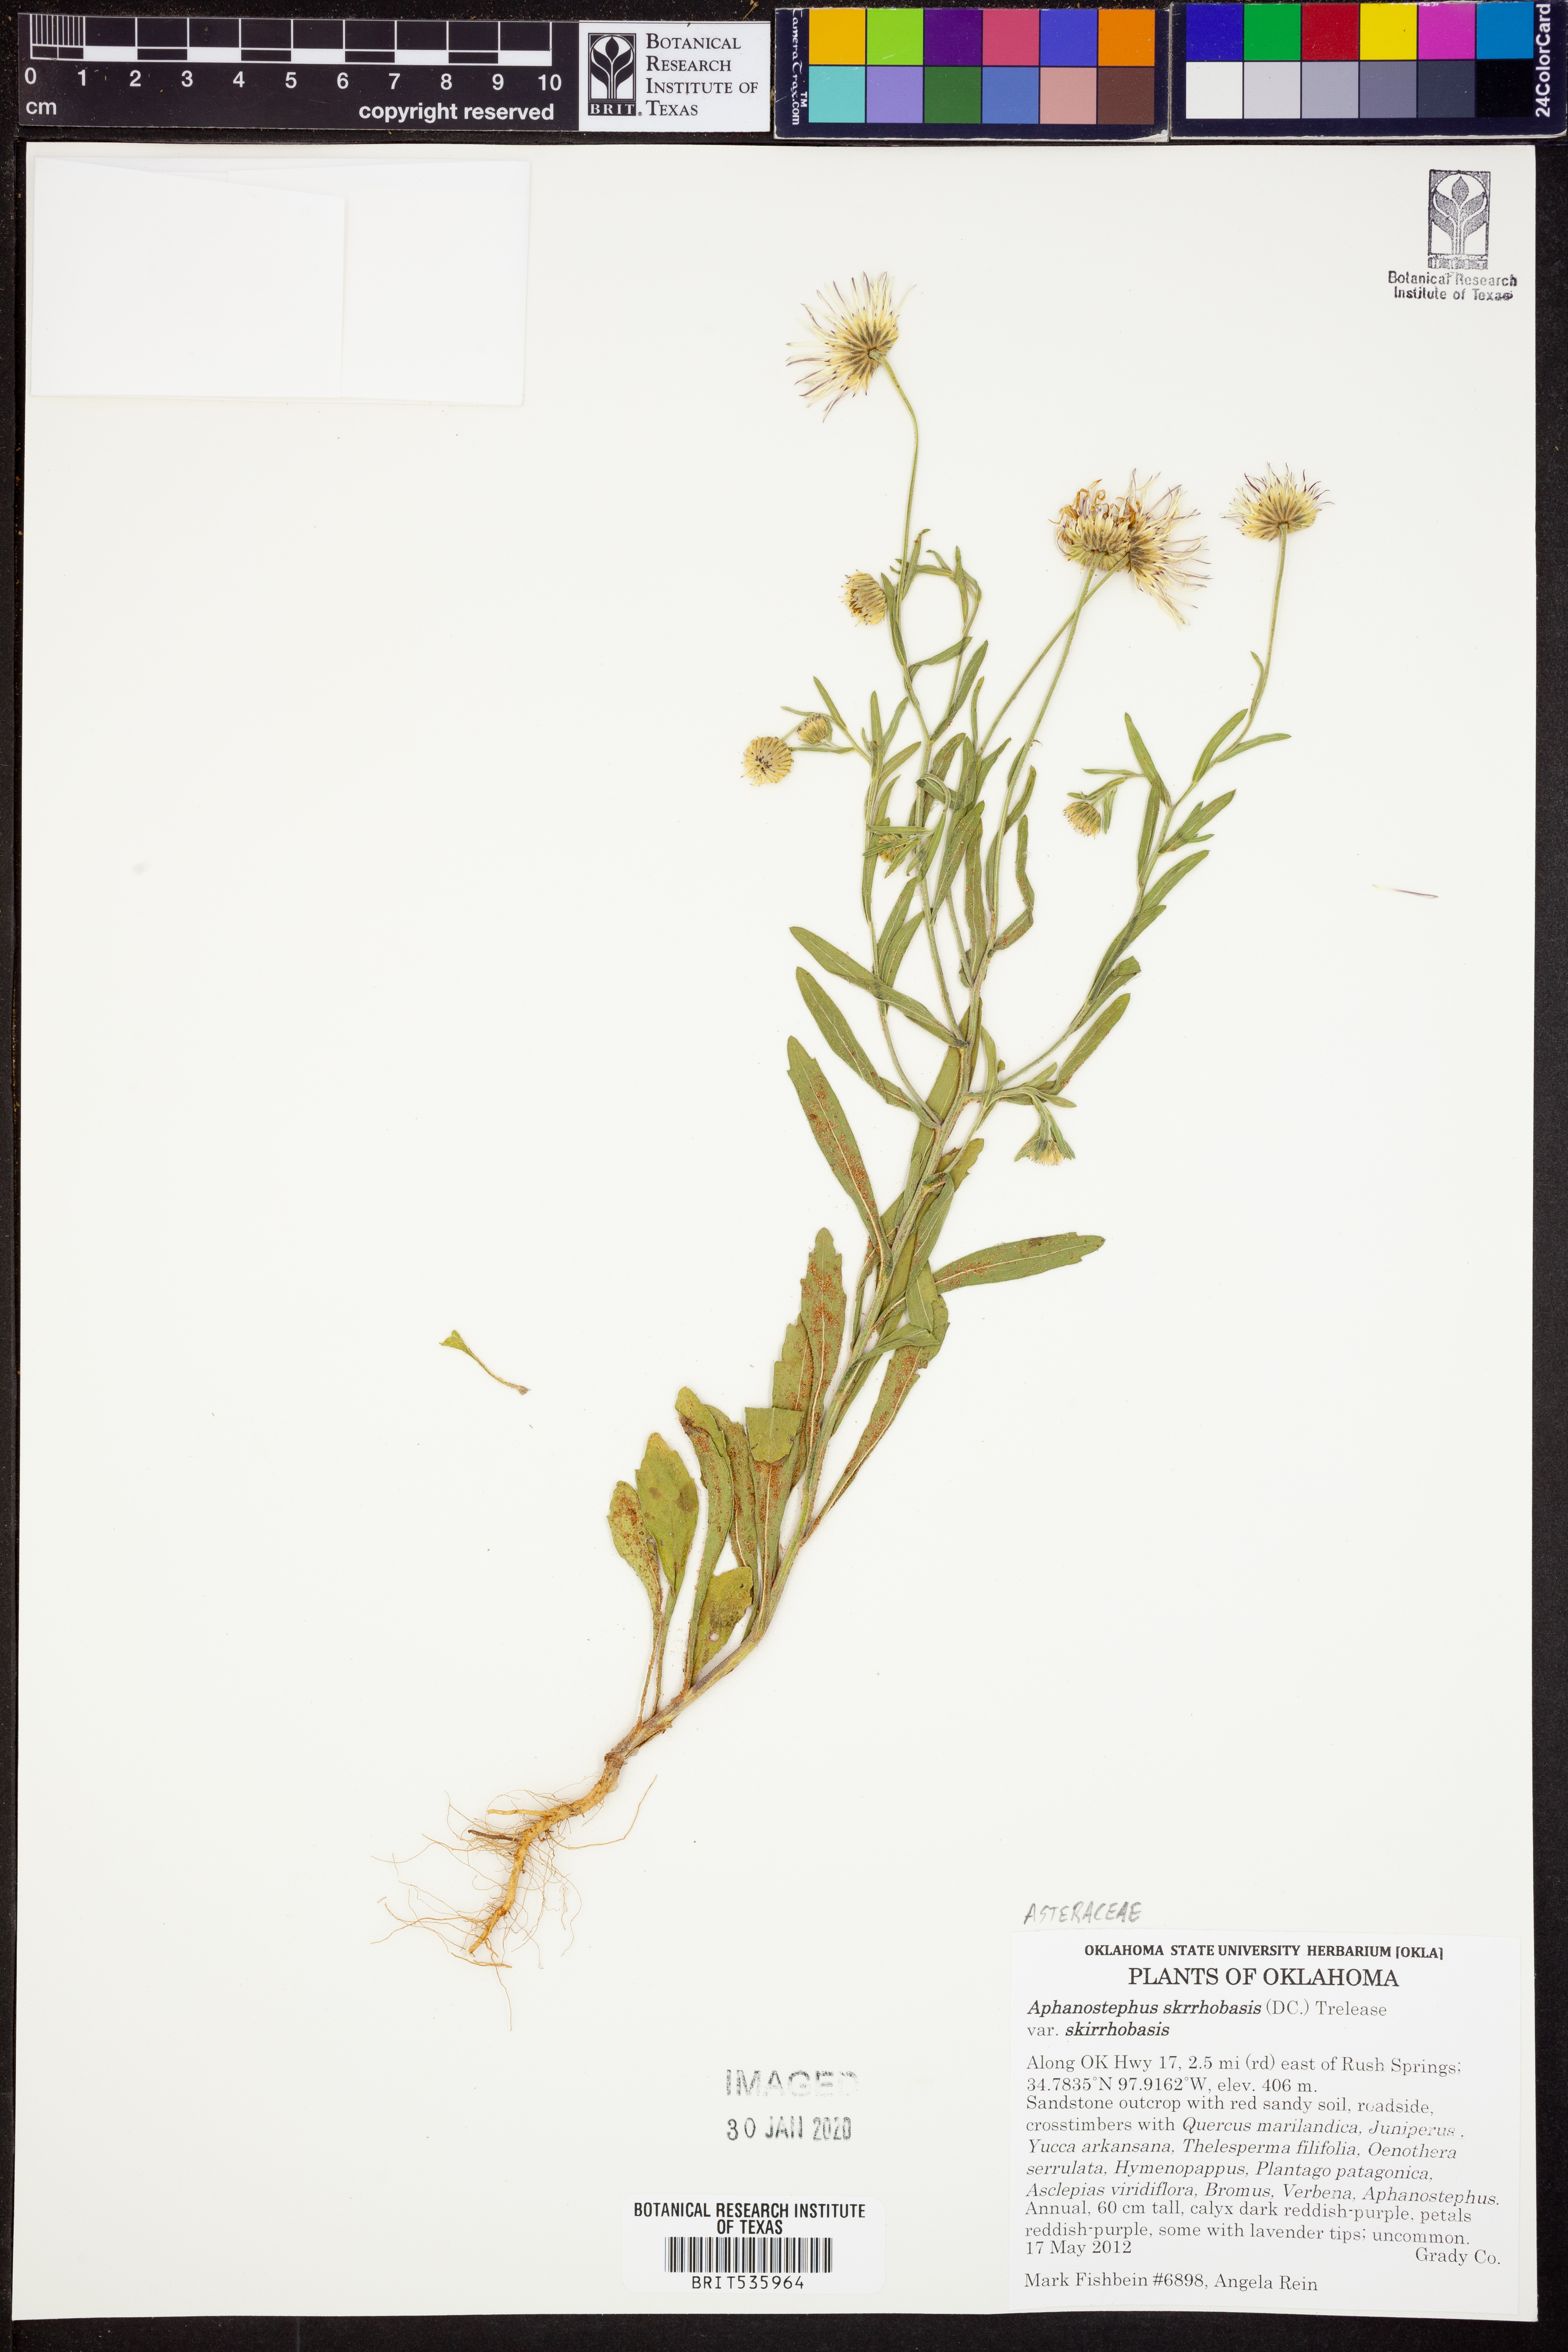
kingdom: Plantae
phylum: Tracheophyta
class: Magnoliopsida
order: Asterales
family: Asteraceae
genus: Aphanostephus
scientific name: Aphanostephus skirrhobasis
